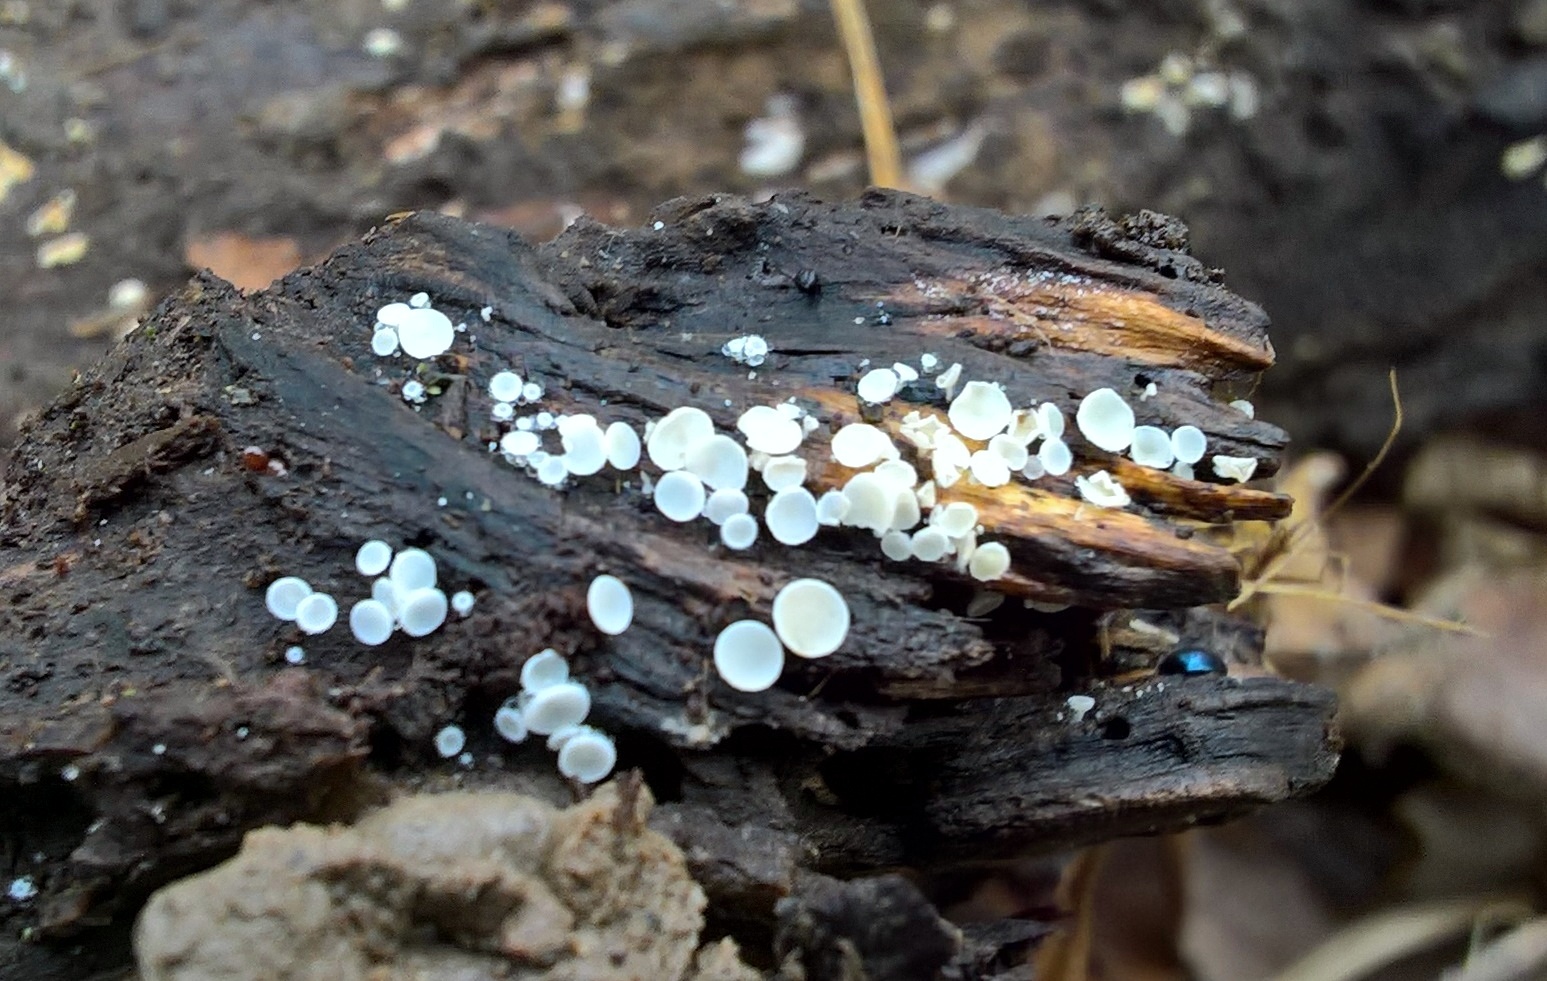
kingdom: Fungi
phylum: Ascomycota
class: Leotiomycetes
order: Helotiales
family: Lachnaceae
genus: Lachnum
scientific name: Lachnum
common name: frynseskive
